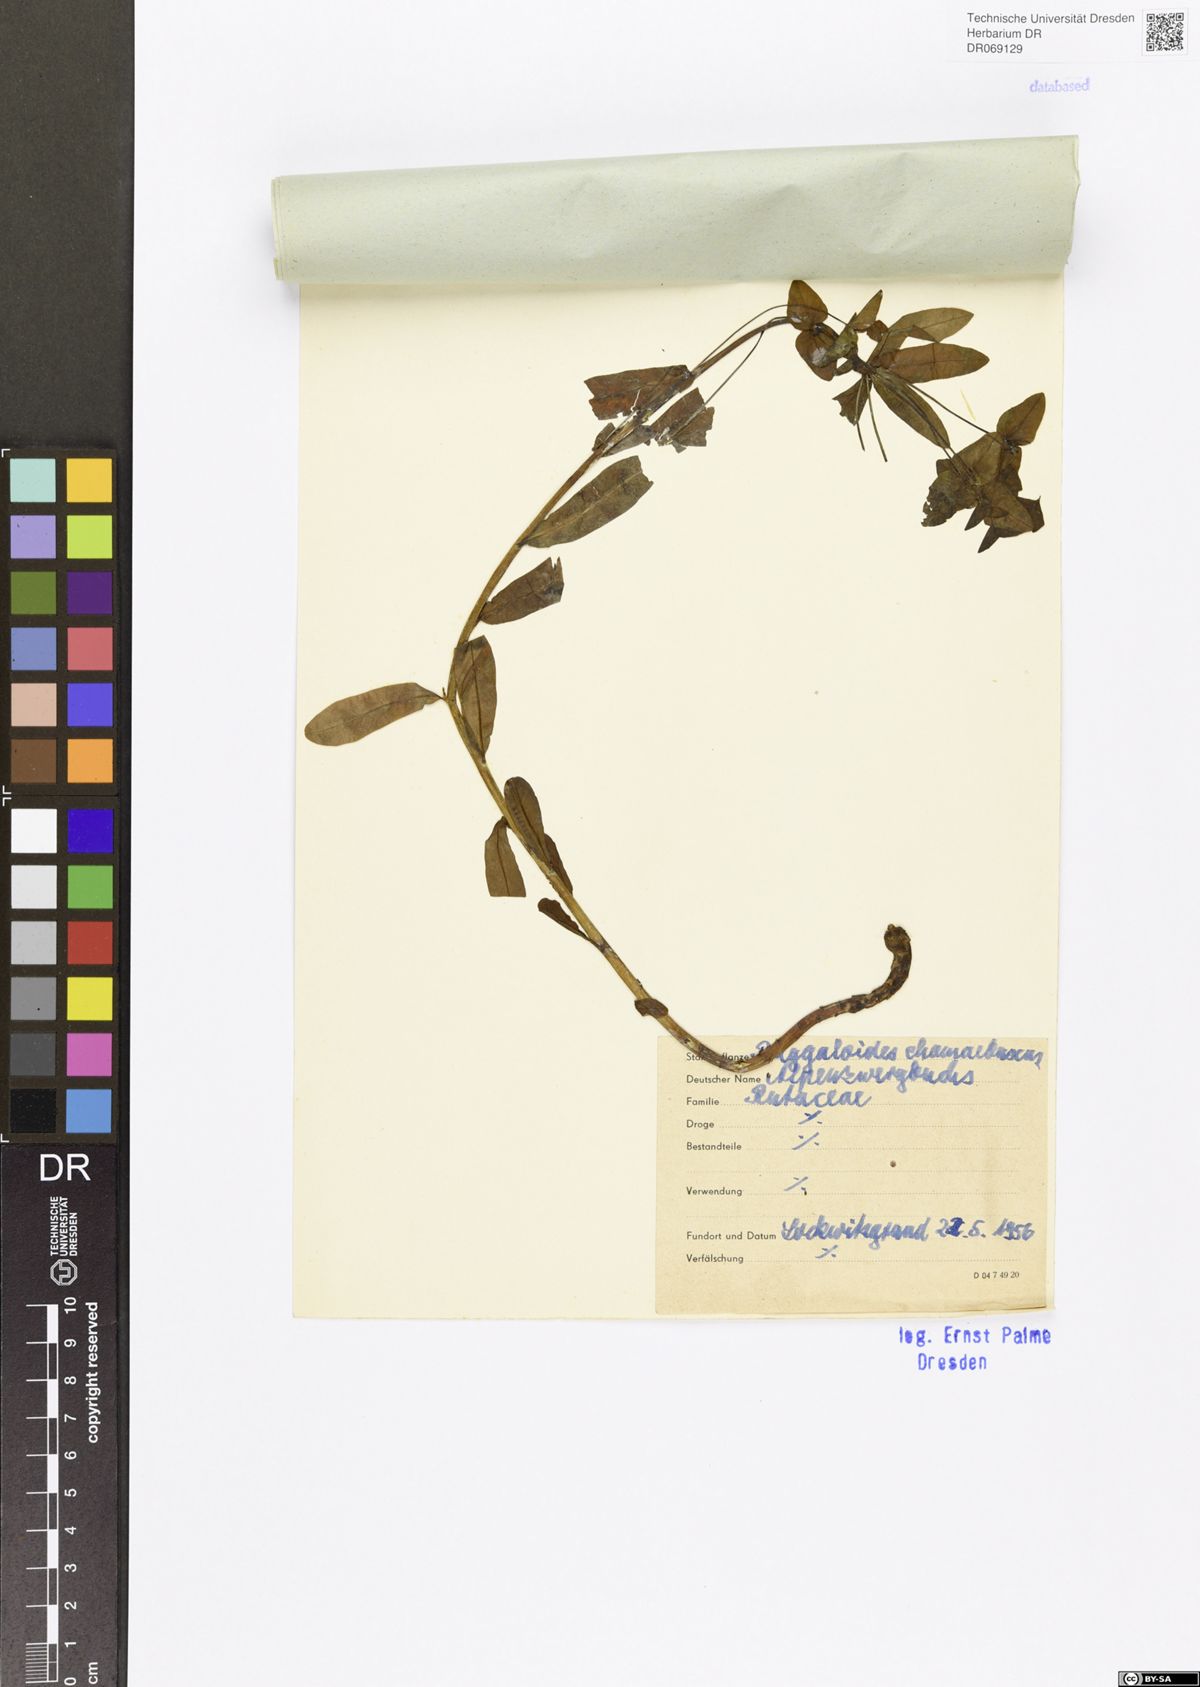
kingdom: Plantae
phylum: Tracheophyta
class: Magnoliopsida
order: Fabales
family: Polygalaceae
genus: Polygaloides
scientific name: Polygaloides chamaebuxus
